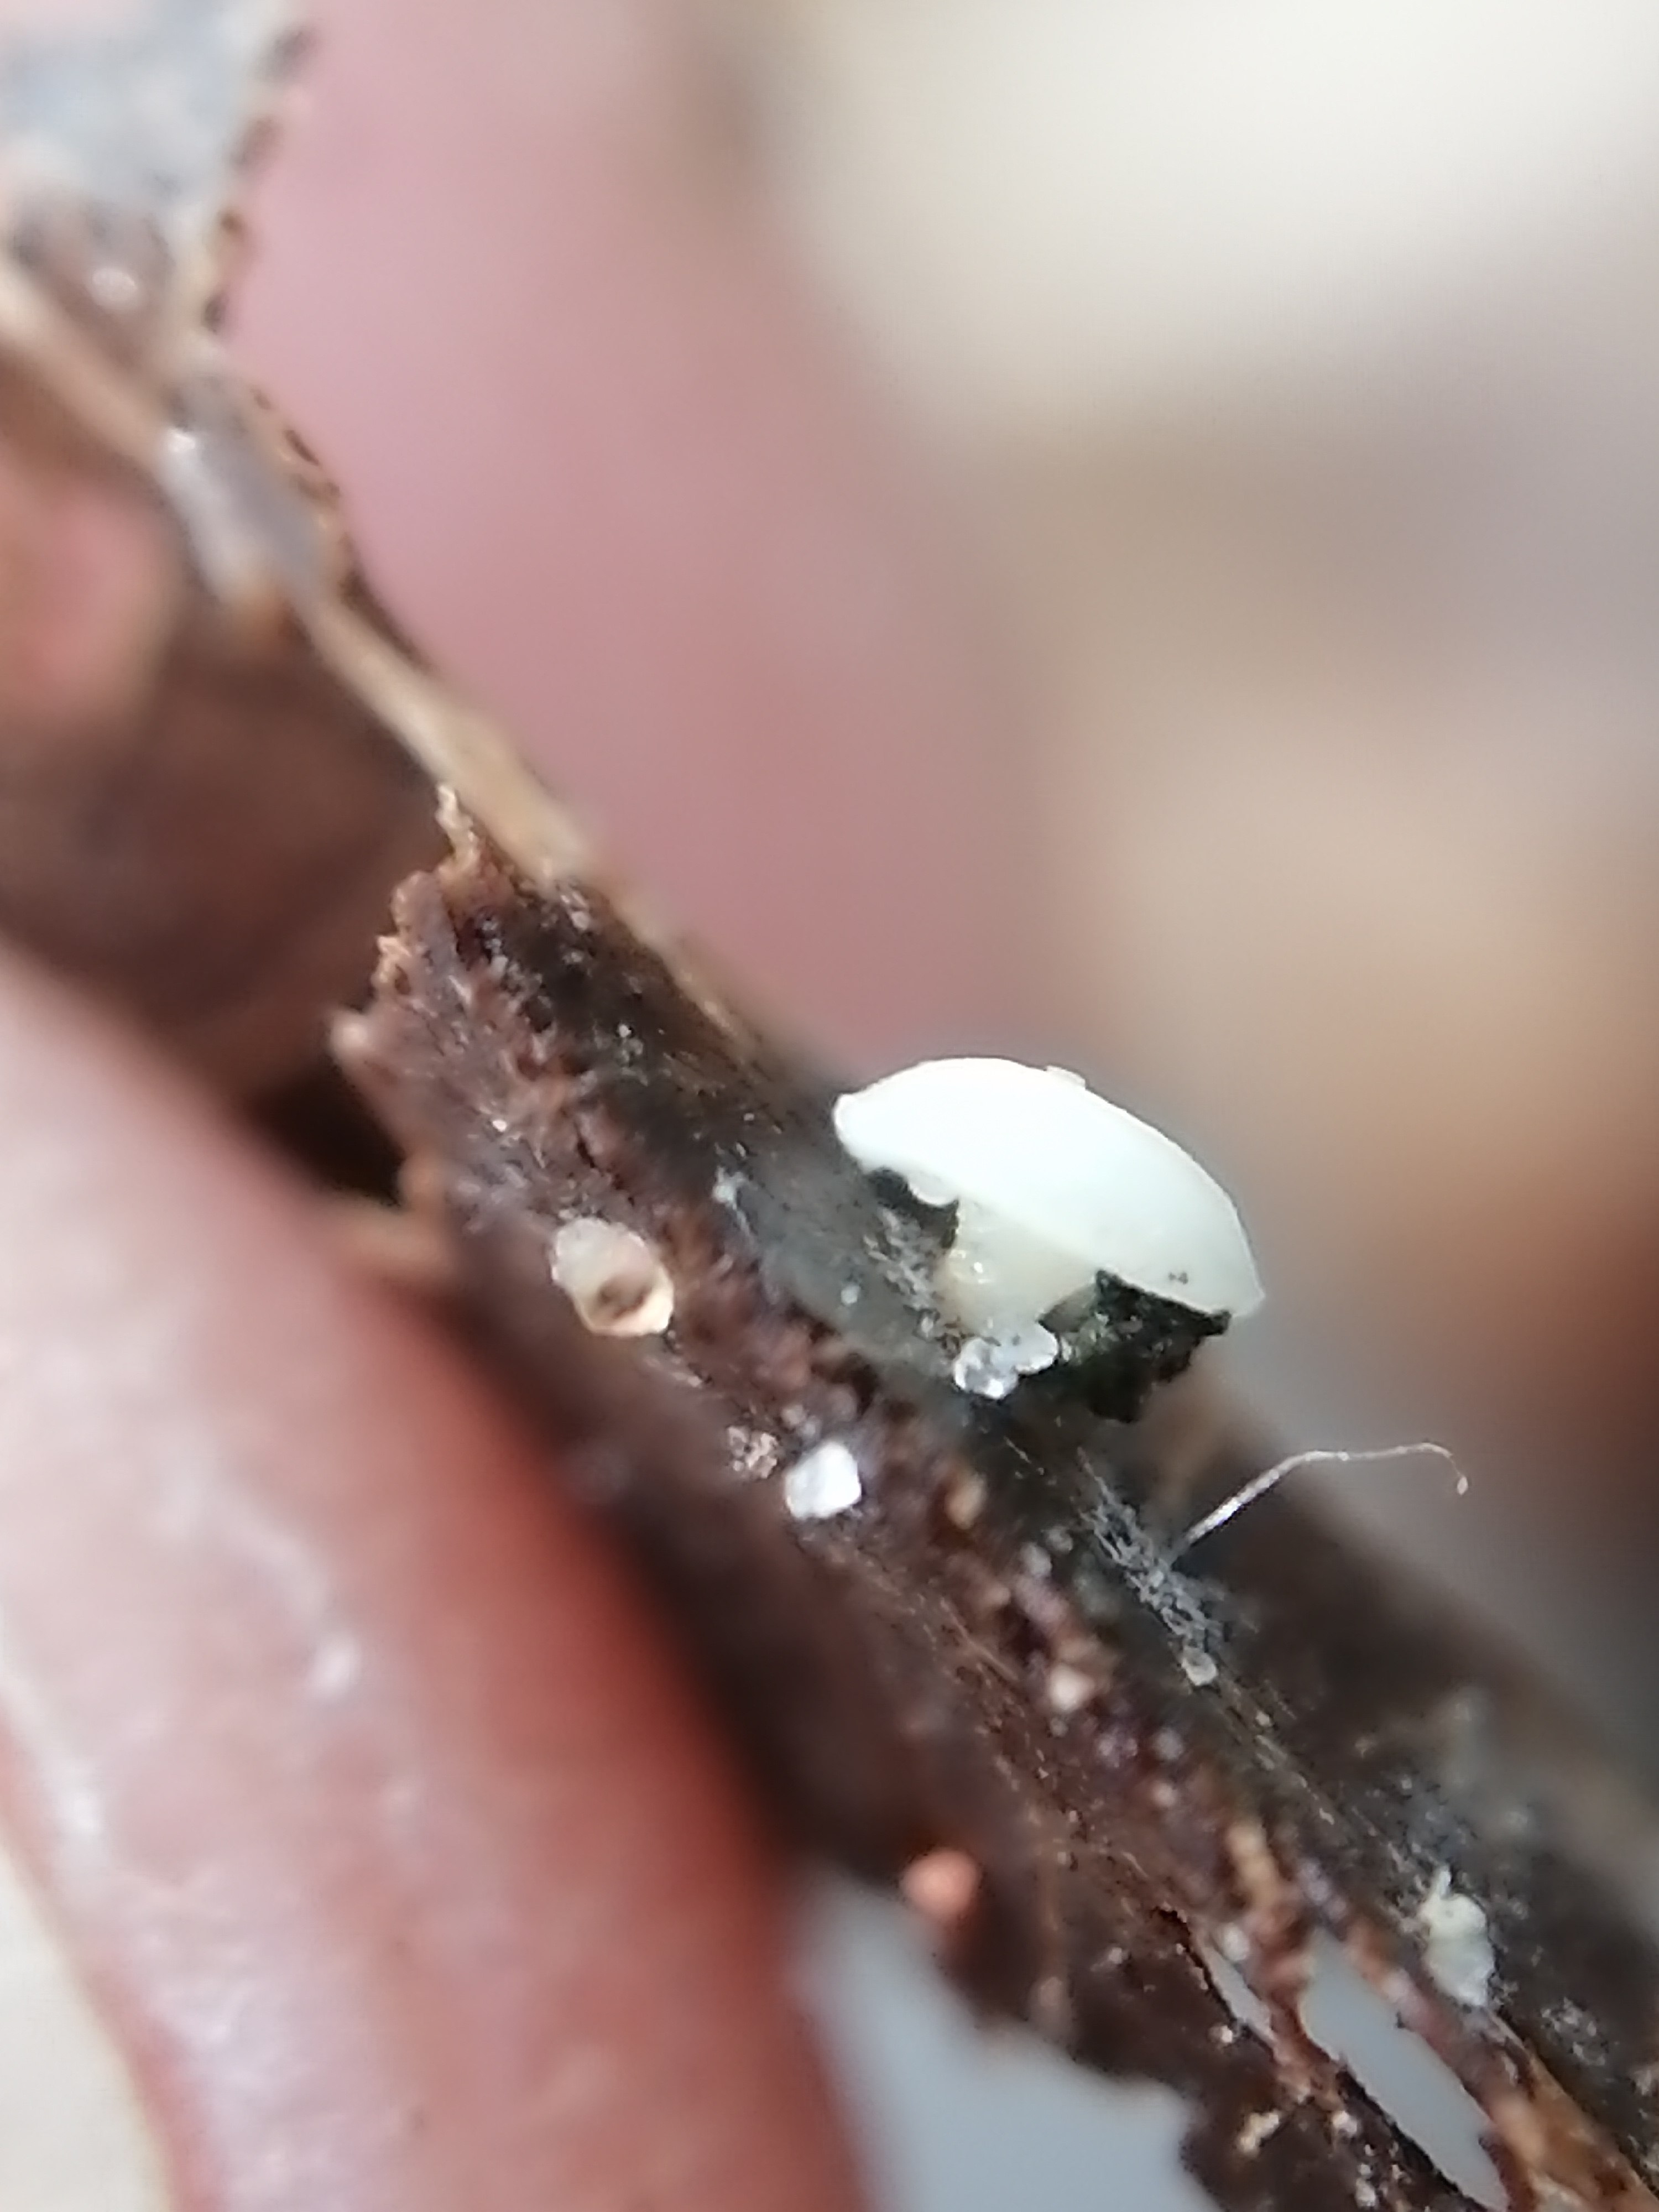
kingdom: Fungi
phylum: Ascomycota
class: Leotiomycetes
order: Helotiales
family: Helotiaceae
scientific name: Helotiaceae
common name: stilkskivefamilien
